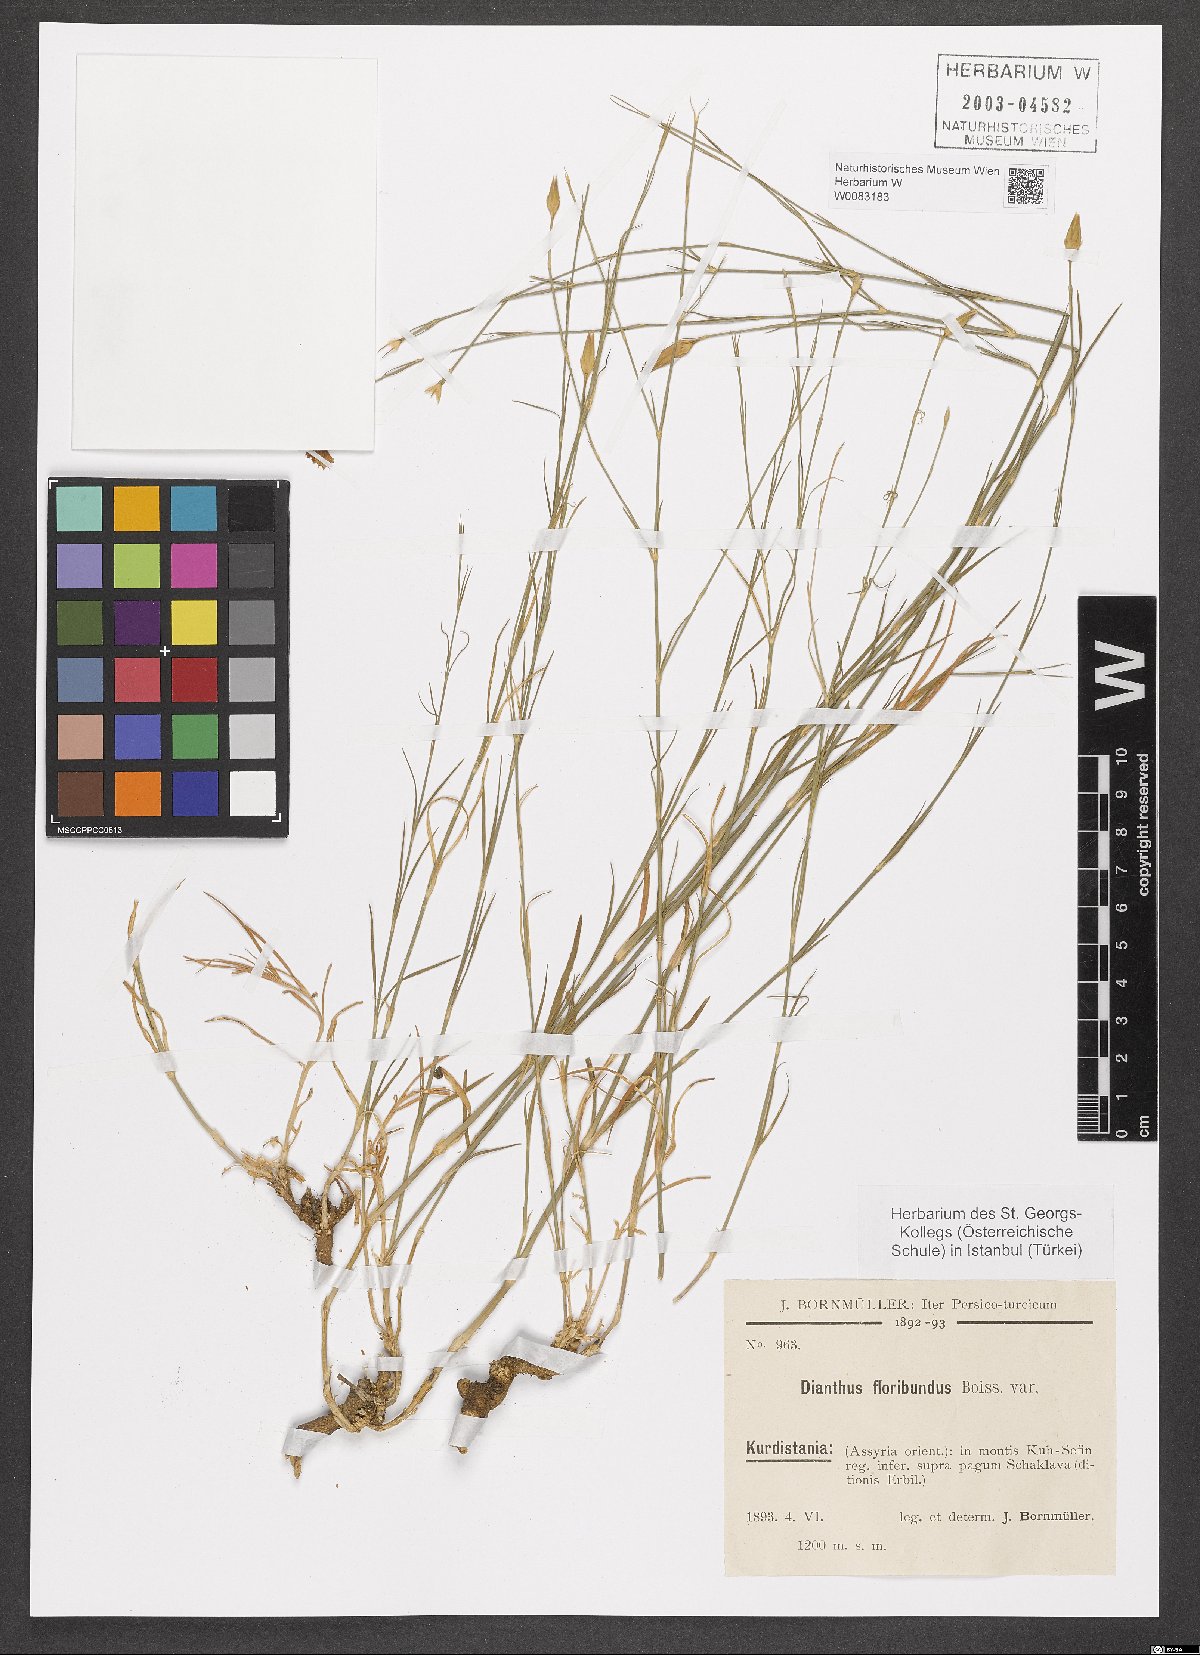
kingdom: Plantae
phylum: Tracheophyta
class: Magnoliopsida
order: Caryophyllales
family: Caryophyllaceae
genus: Dianthus
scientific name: Dianthus floribundus
